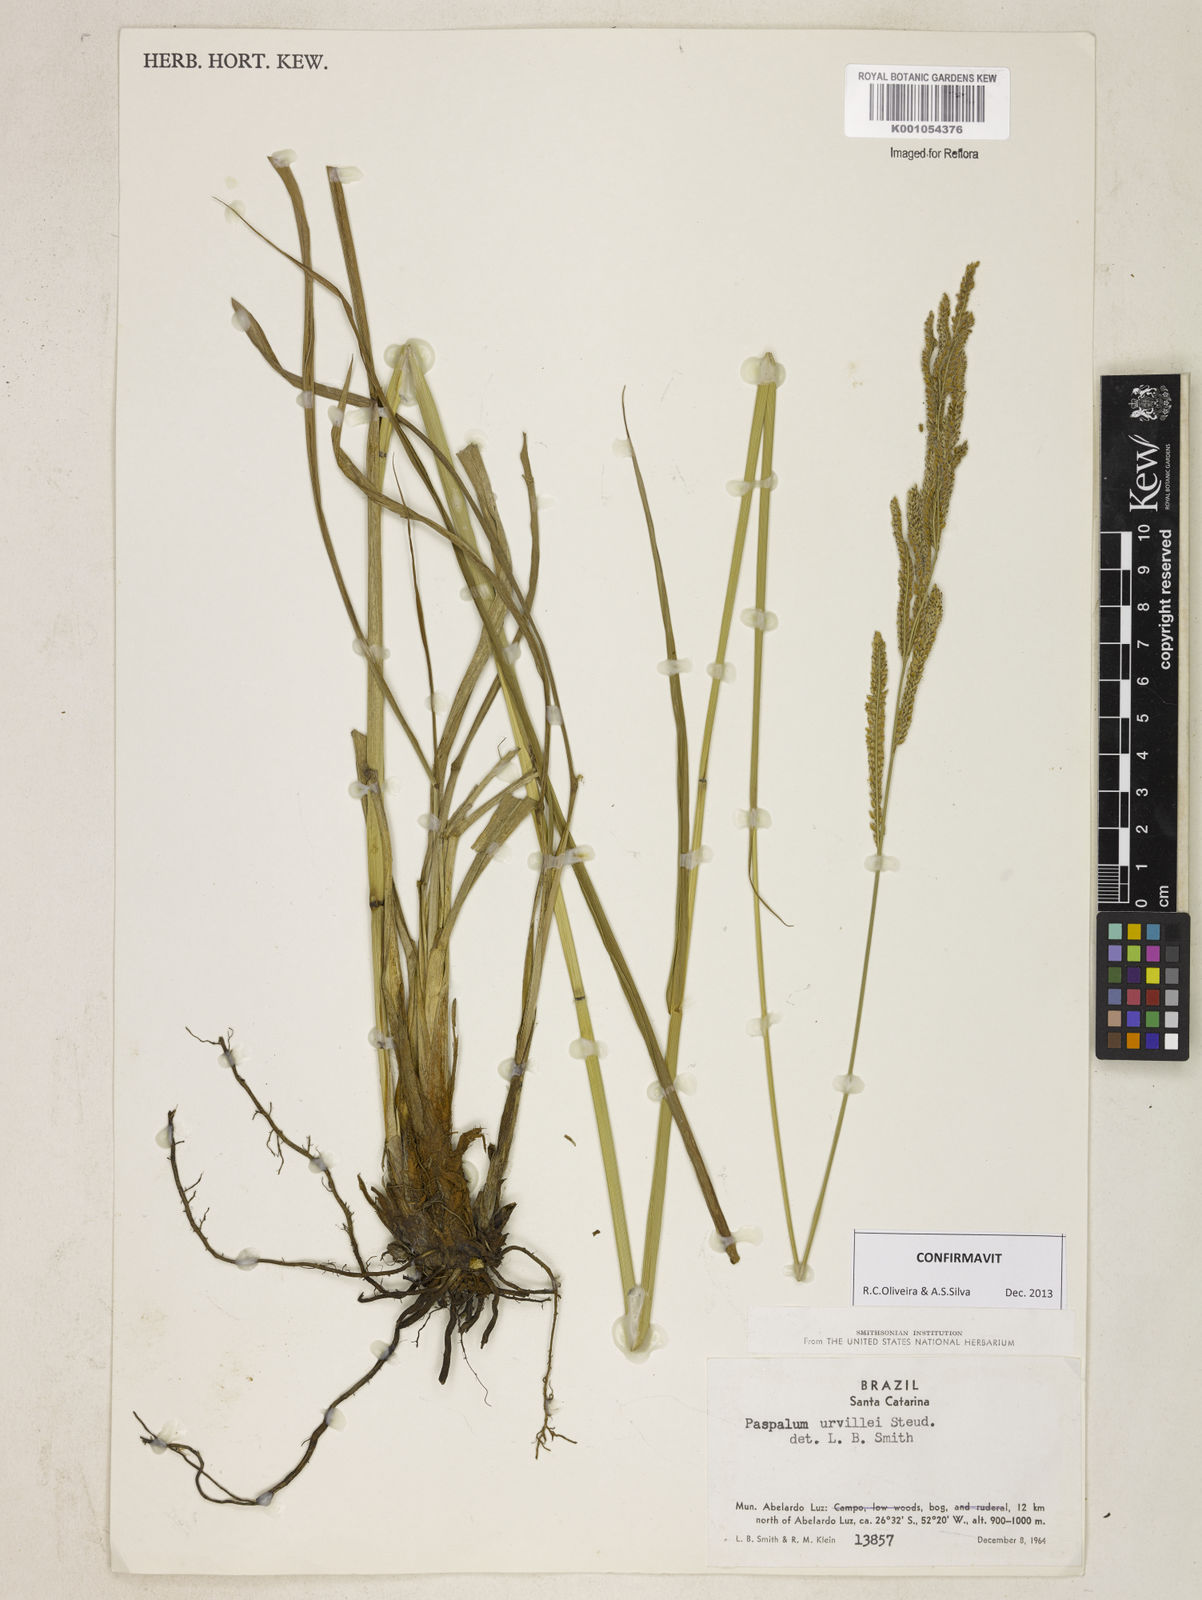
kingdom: Plantae
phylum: Tracheophyta
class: Liliopsida
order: Poales
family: Poaceae
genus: Paspalum
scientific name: Paspalum urvillei
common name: Vasey's grass
